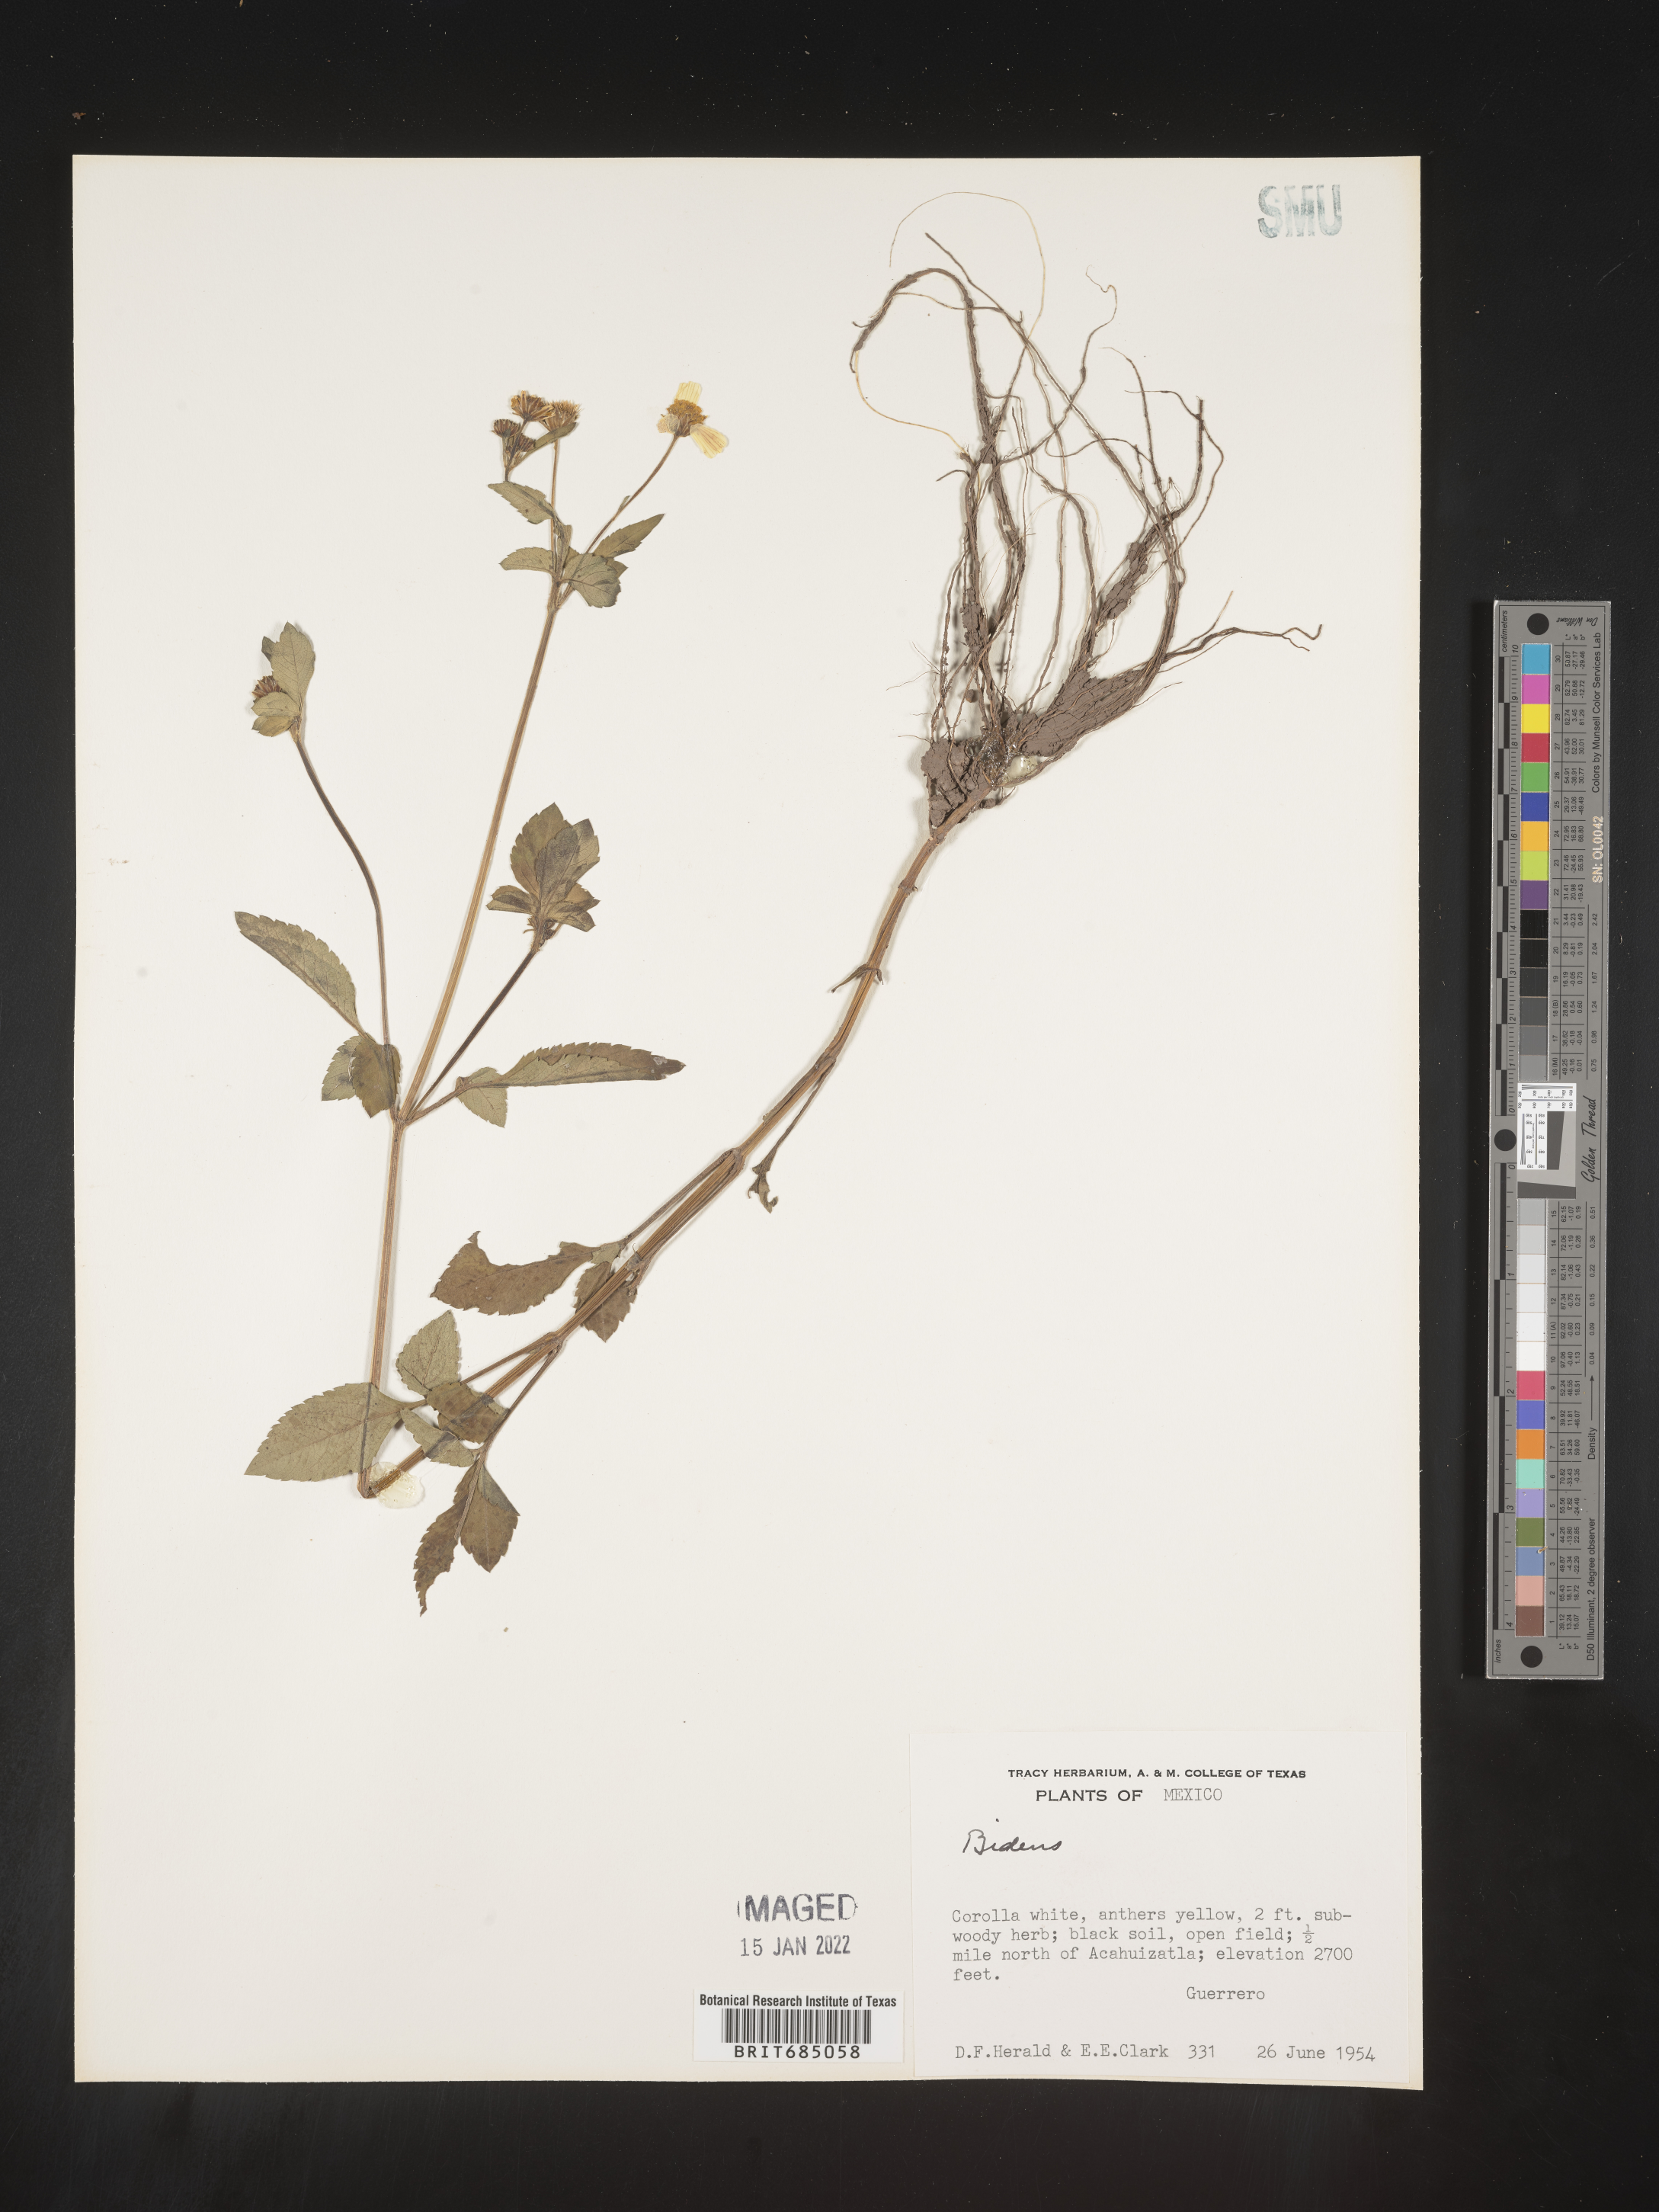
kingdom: Plantae
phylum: Tracheophyta
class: Magnoliopsida
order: Asterales
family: Asteraceae
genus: Bidens
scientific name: Bidens
